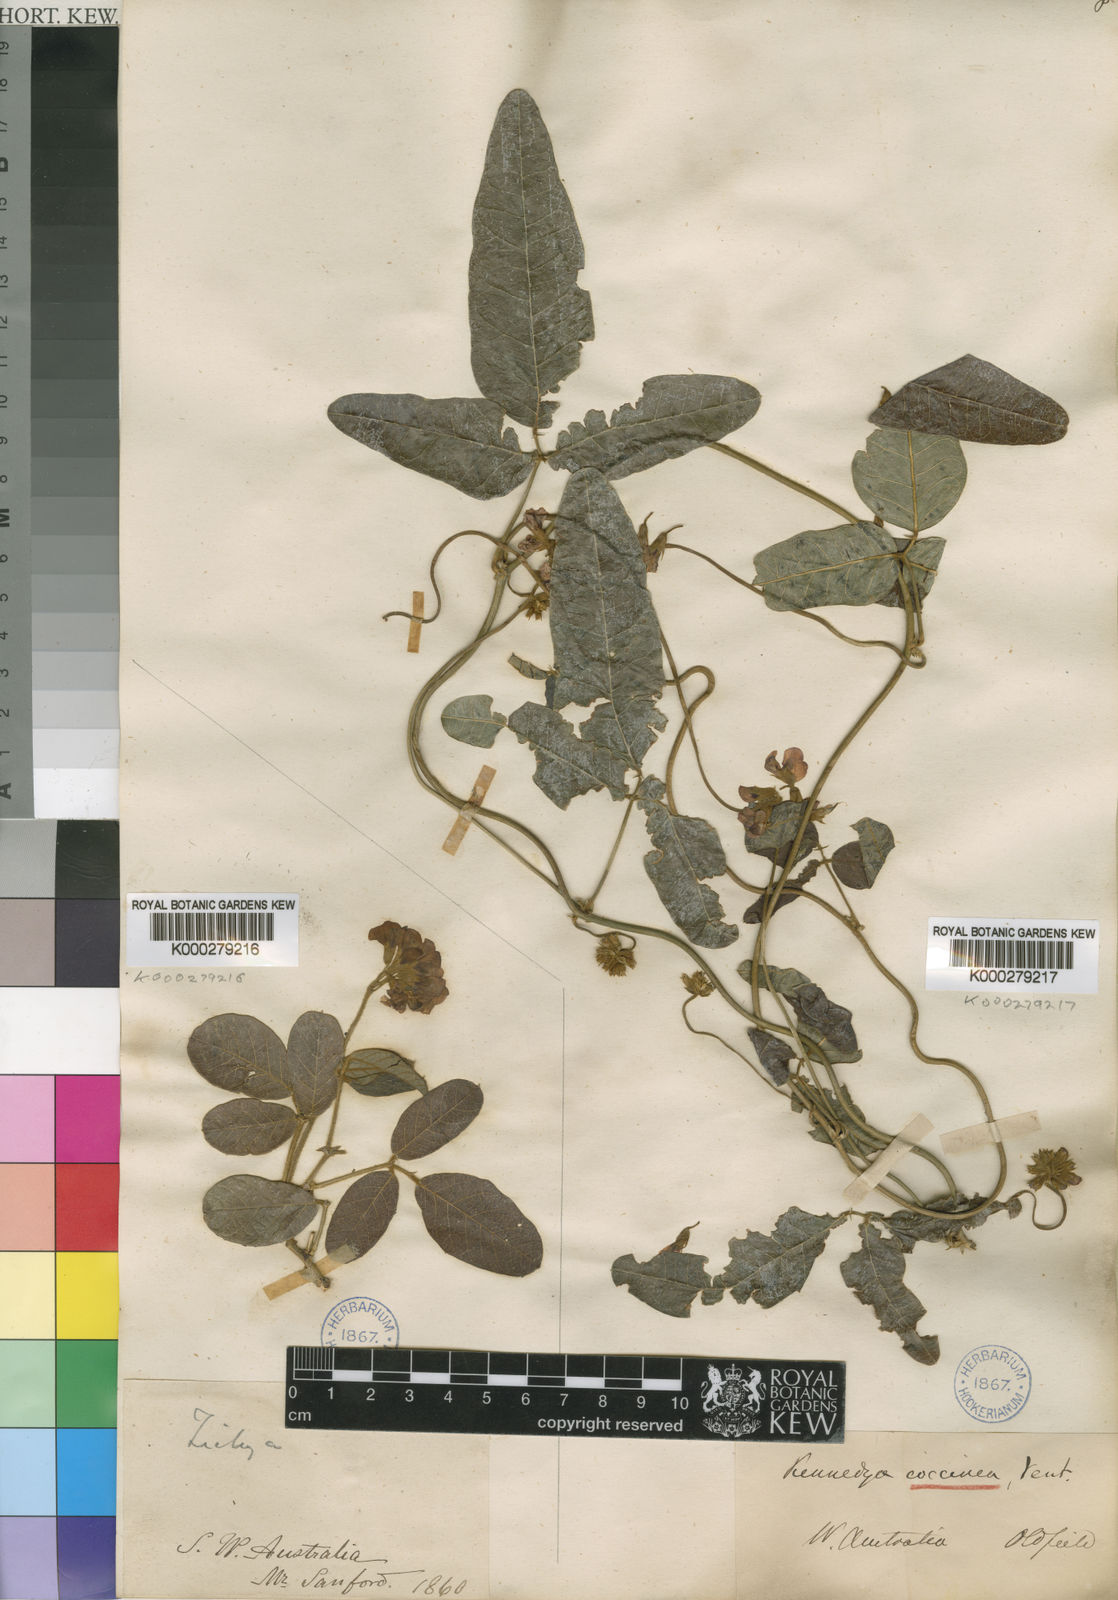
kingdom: Animalia
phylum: Arthropoda
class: Insecta
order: Orthoptera
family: Tettigoniidae
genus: Zichya
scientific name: Zichya
